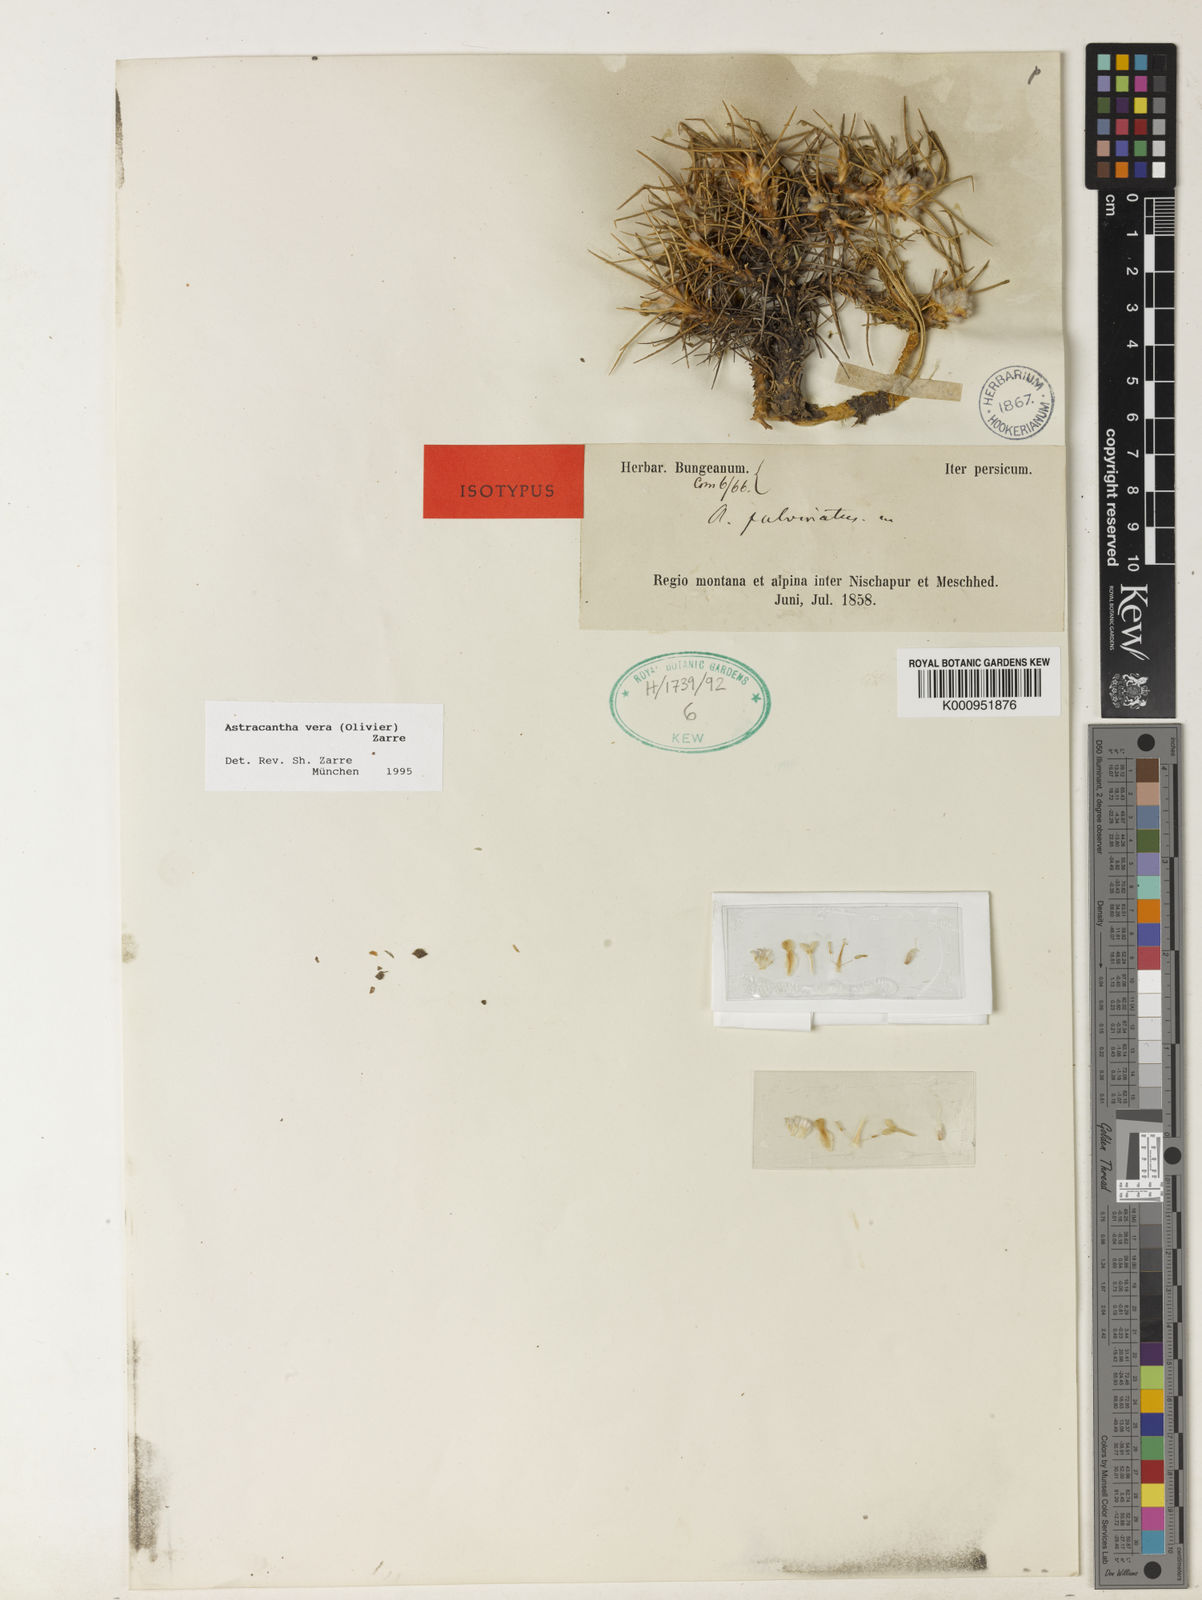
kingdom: Plantae
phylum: Tracheophyta
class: Magnoliopsida
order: Fabales
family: Fabaceae
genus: Astragalus
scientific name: Astragalus verus
